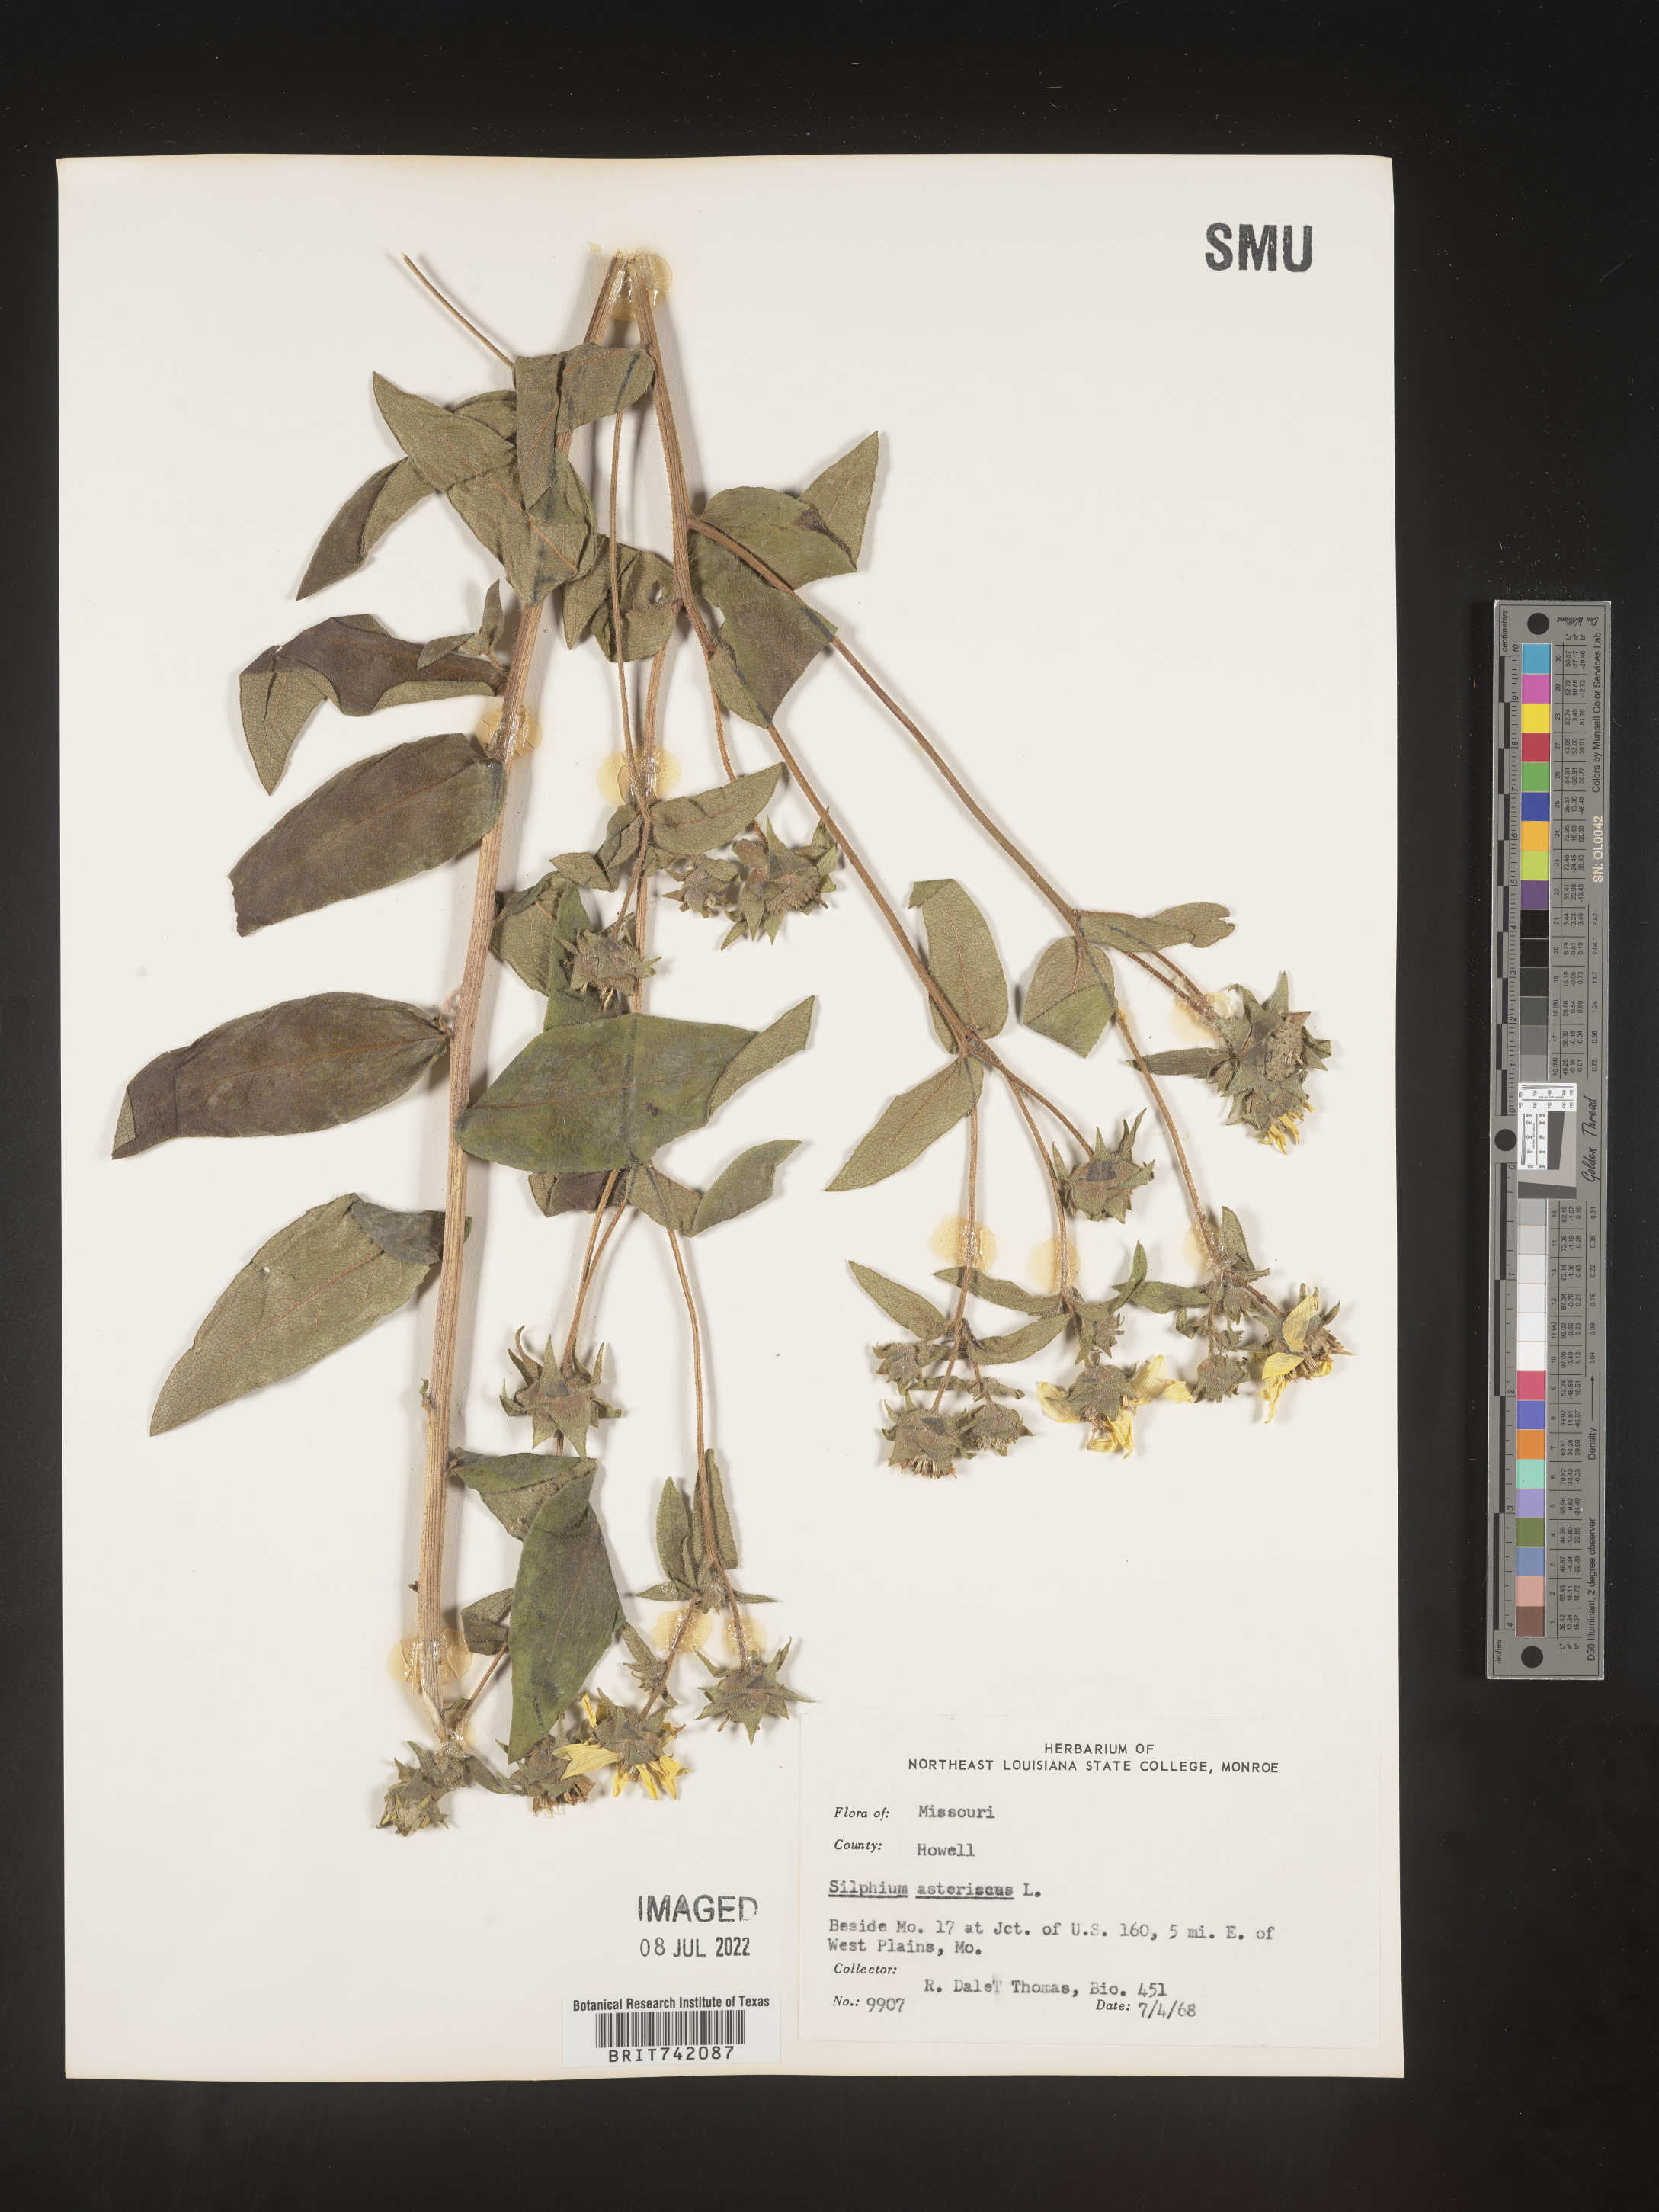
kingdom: Plantae
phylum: Tracheophyta
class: Magnoliopsida
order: Asterales
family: Asteraceae
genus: Silphium
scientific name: Silphium asperrimum
